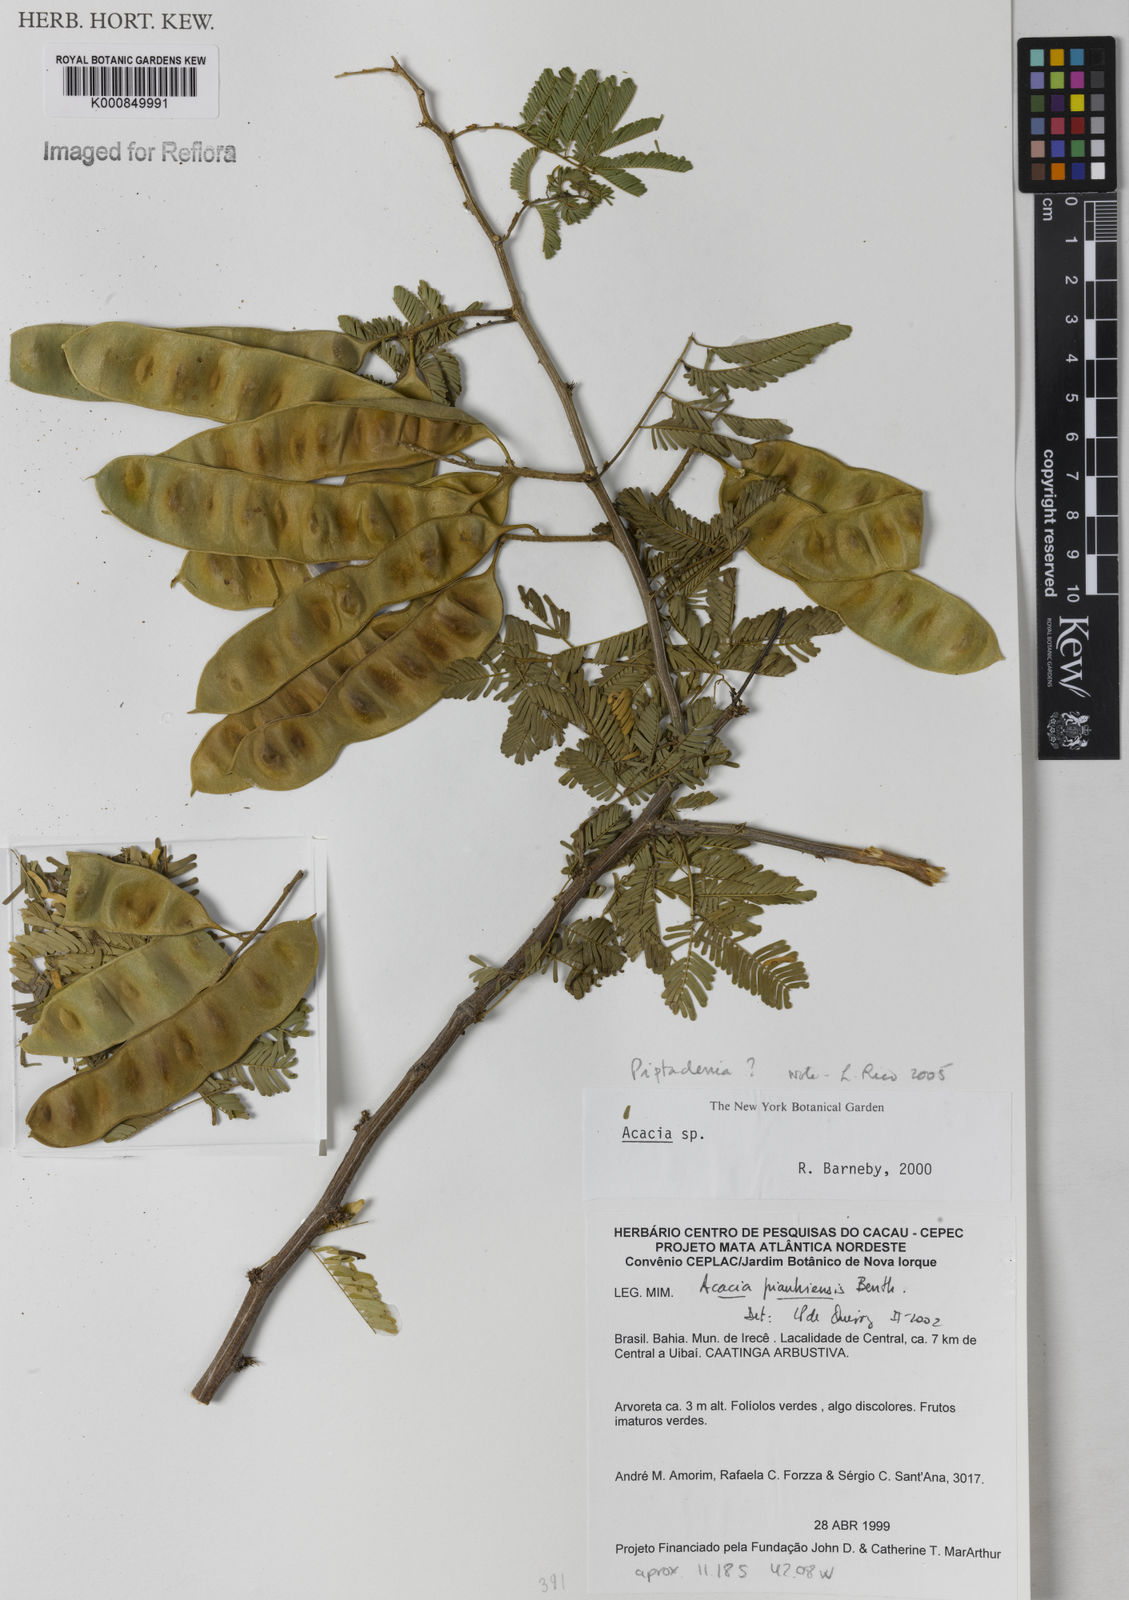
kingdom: Plantae
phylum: Tracheophyta
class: Magnoliopsida
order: Fabales
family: Fabaceae
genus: Piptadenia
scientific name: Piptadenia
